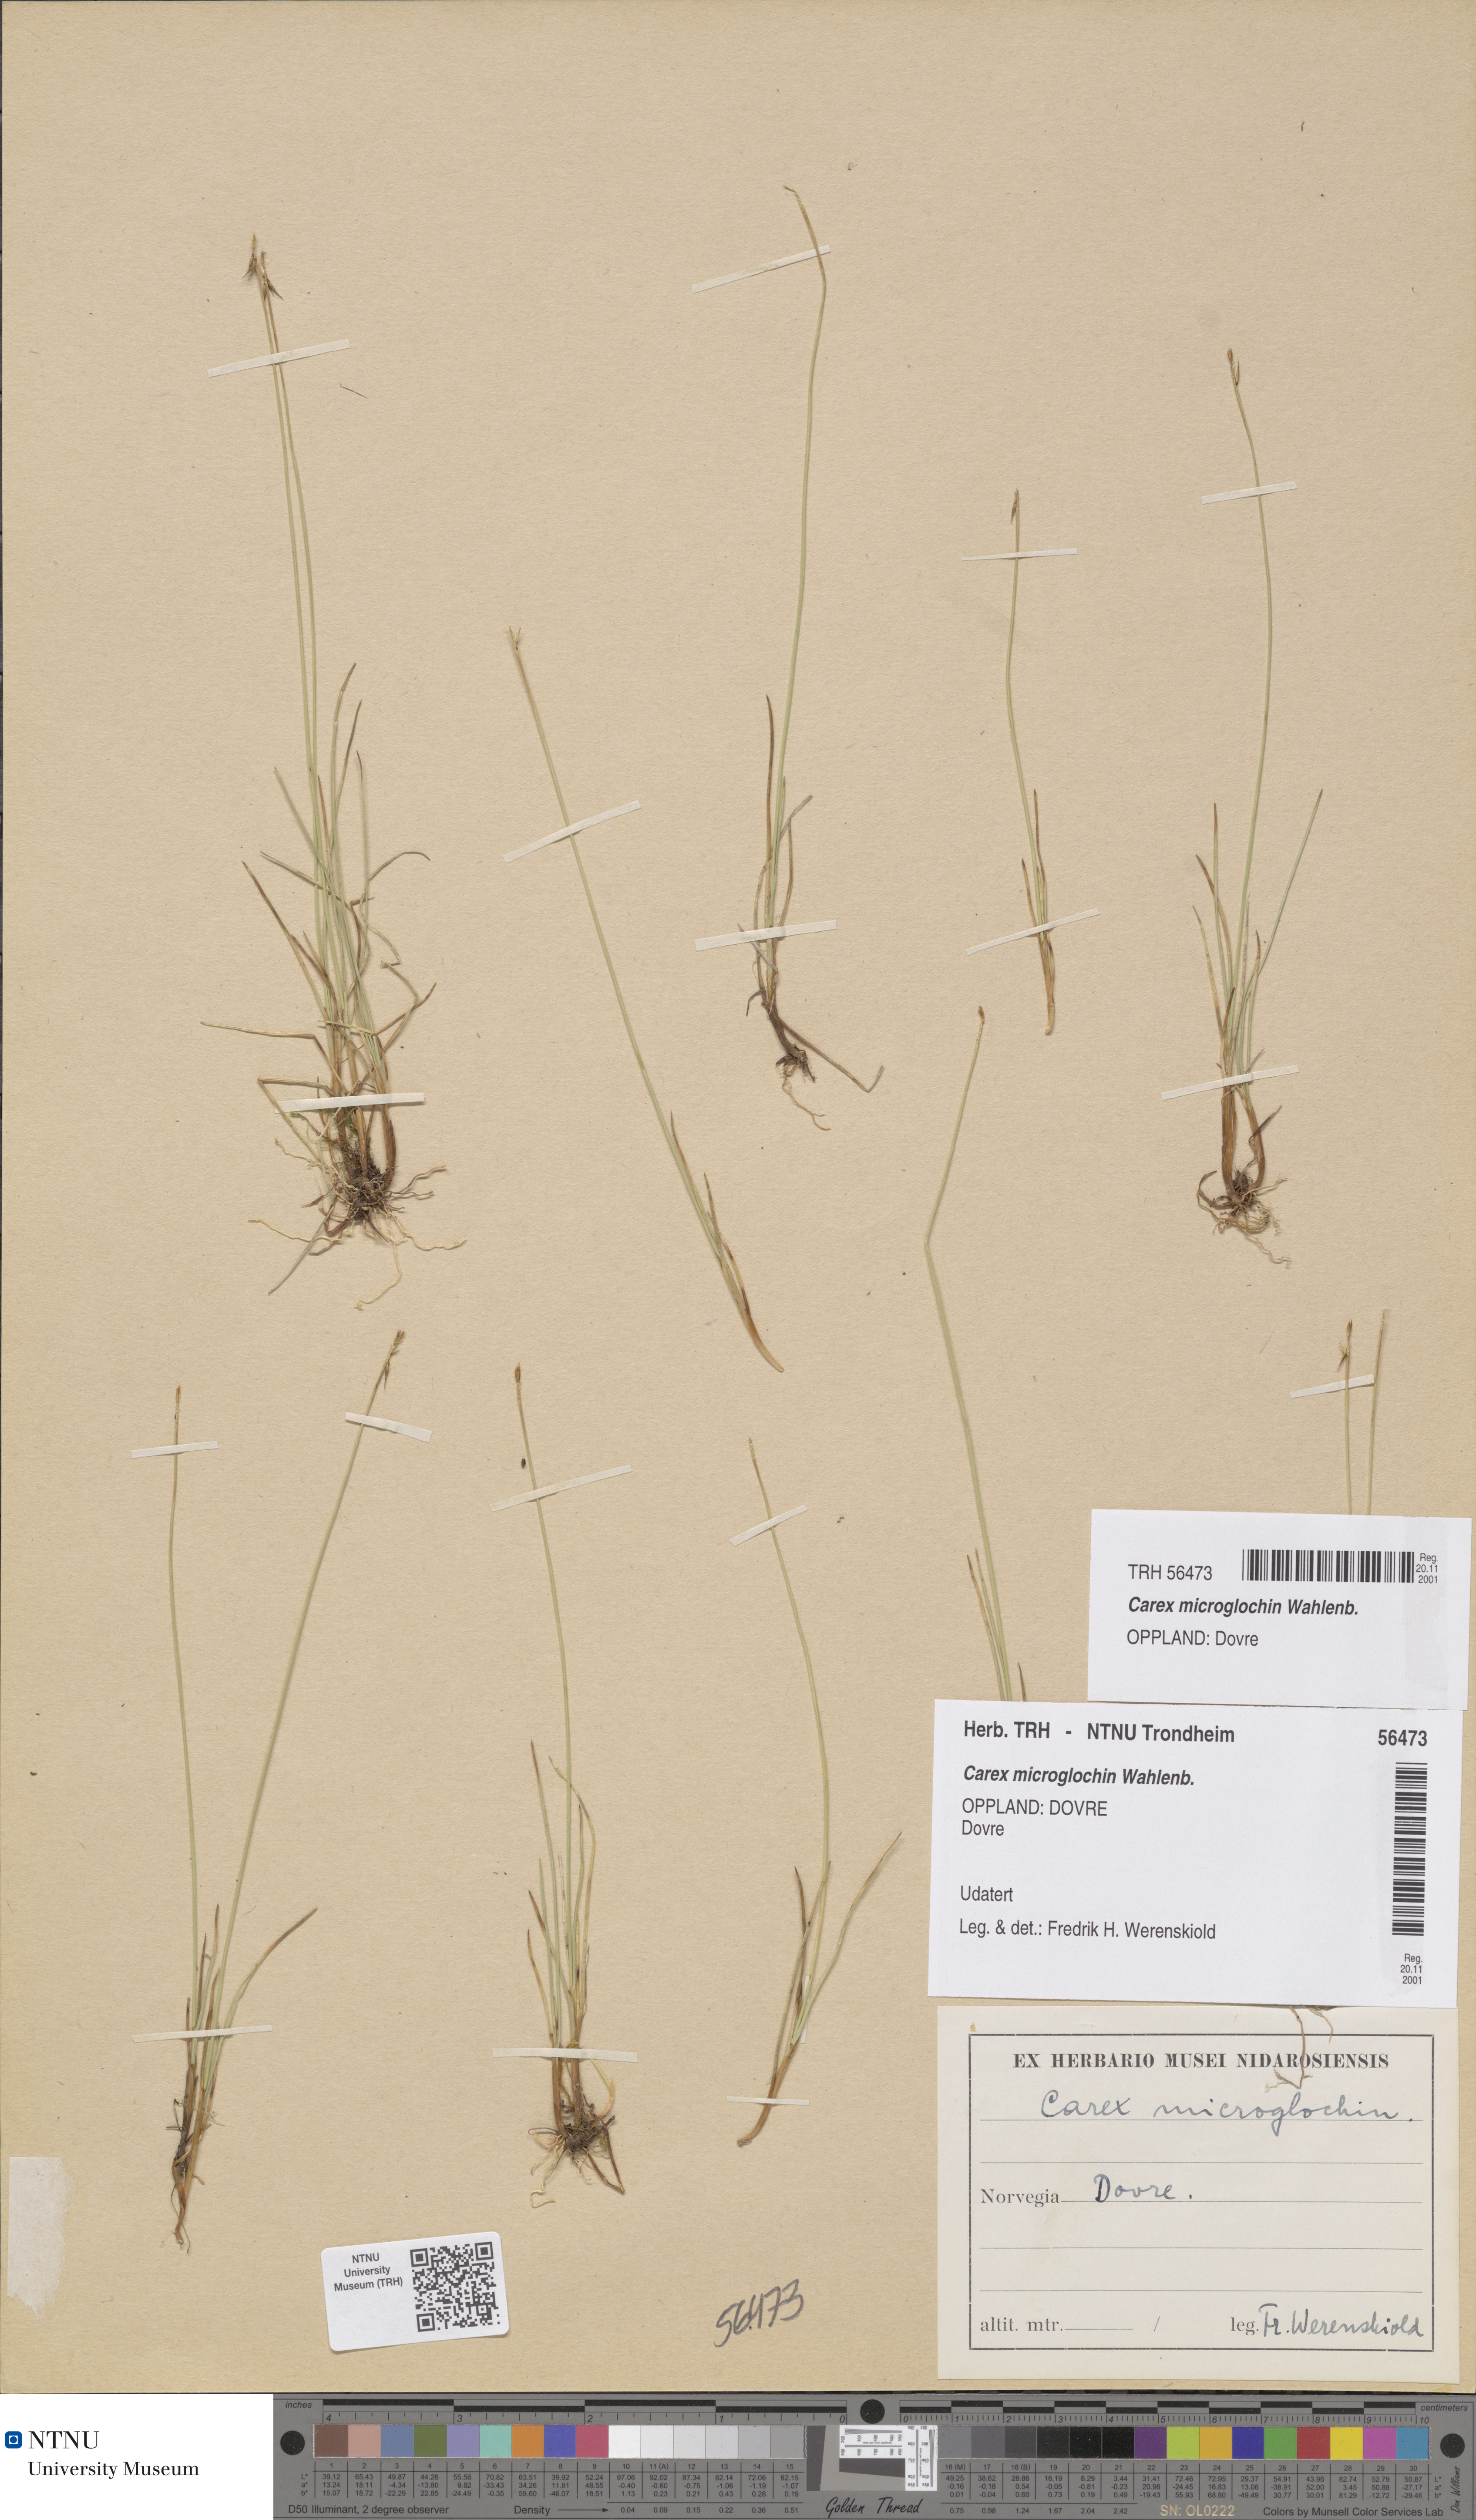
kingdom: Plantae
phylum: Tracheophyta
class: Liliopsida
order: Poales
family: Cyperaceae
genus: Carex
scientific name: Carex microglochin
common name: Bristle sedge
